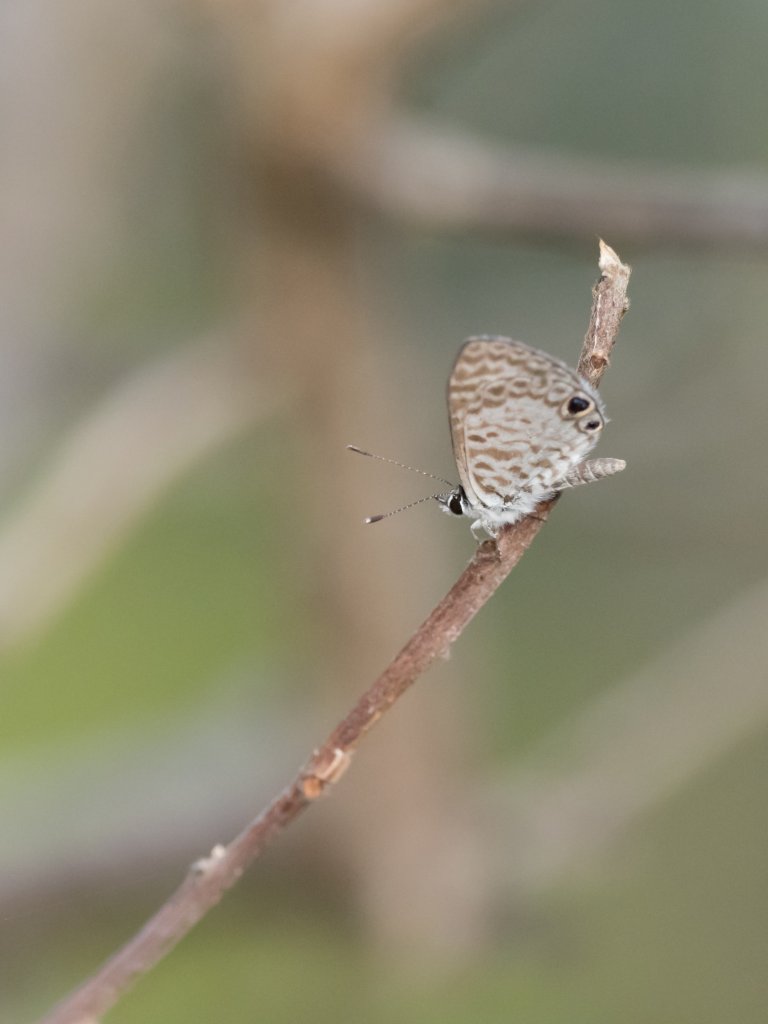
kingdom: Animalia
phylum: Arthropoda
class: Insecta
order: Lepidoptera
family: Lycaenidae
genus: Leptotes
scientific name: Leptotes cassius
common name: Cassius Blue
